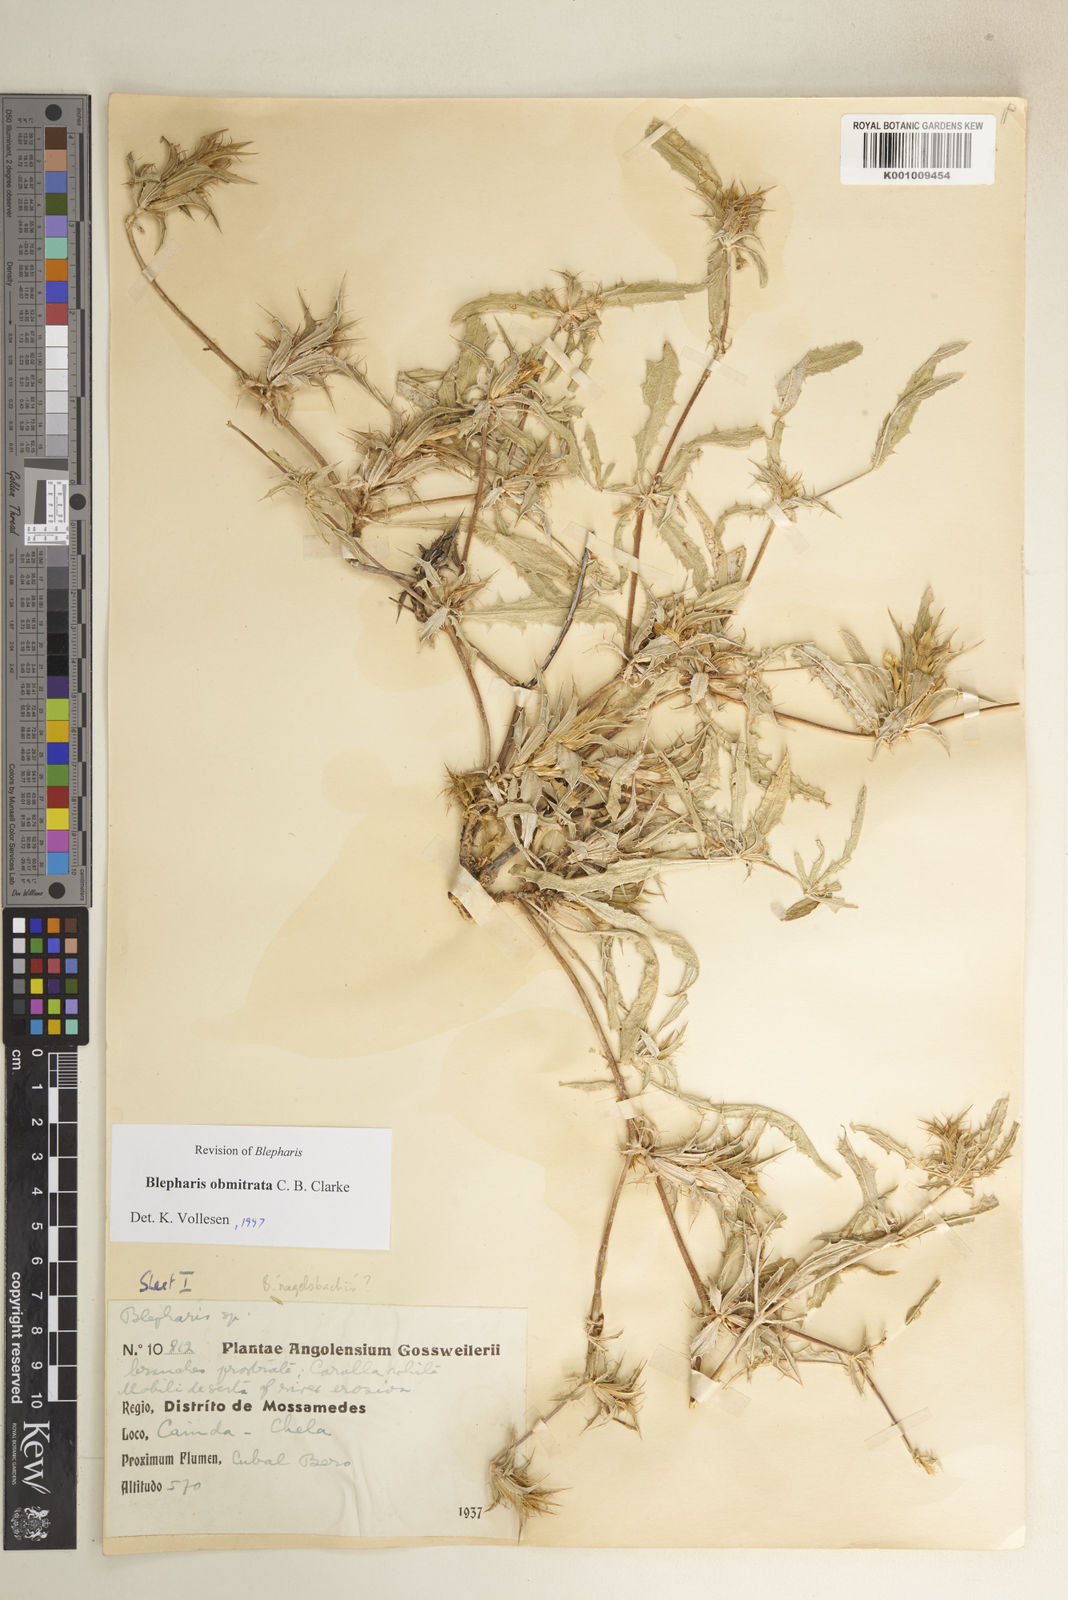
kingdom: Plantae
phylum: Tracheophyta
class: Magnoliopsida
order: Lamiales
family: Acanthaceae
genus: Blepharis
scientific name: Blepharis obmitrata
